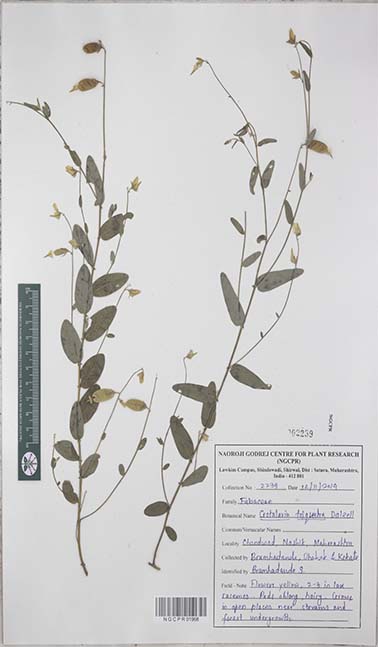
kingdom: Plantae
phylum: Tracheophyta
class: Magnoliopsida
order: Fabales
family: Fabaceae
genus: Crotalaria
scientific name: Crotalaria triquetra
